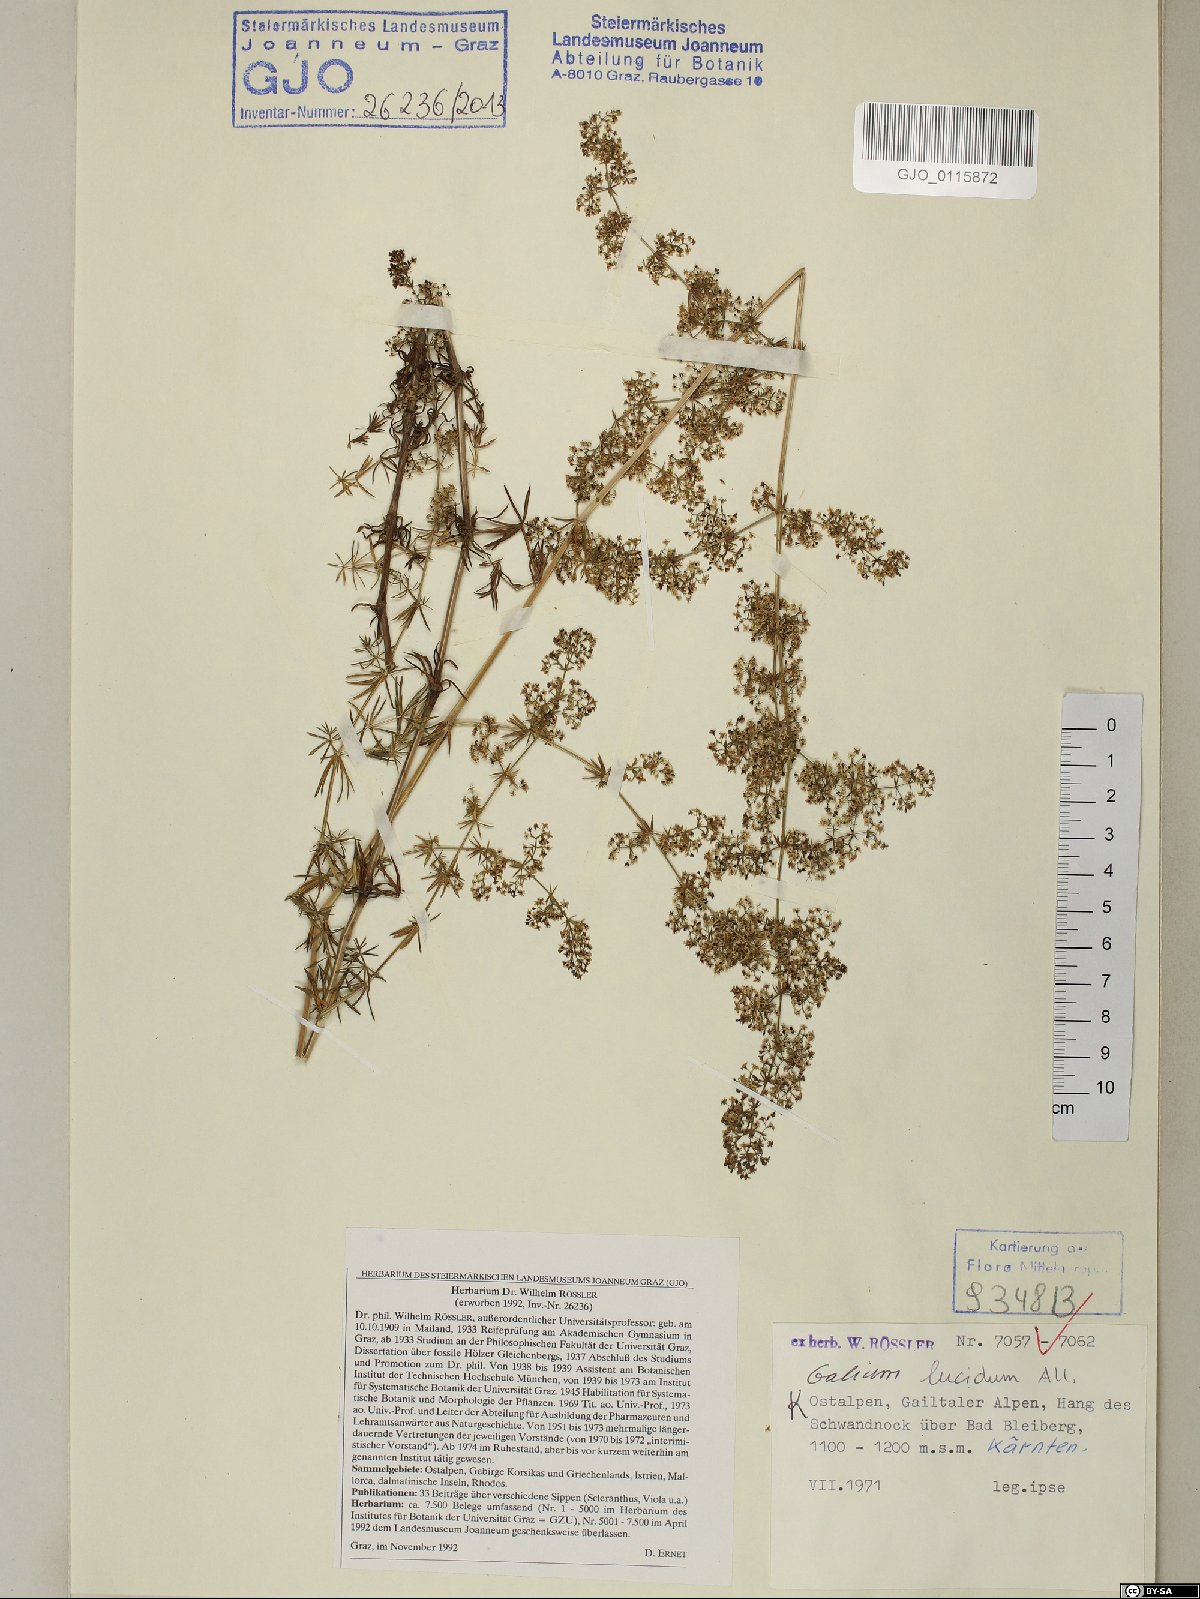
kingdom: Plantae
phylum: Tracheophyta
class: Magnoliopsida
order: Gentianales
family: Rubiaceae
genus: Galium
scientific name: Galium lucidum
